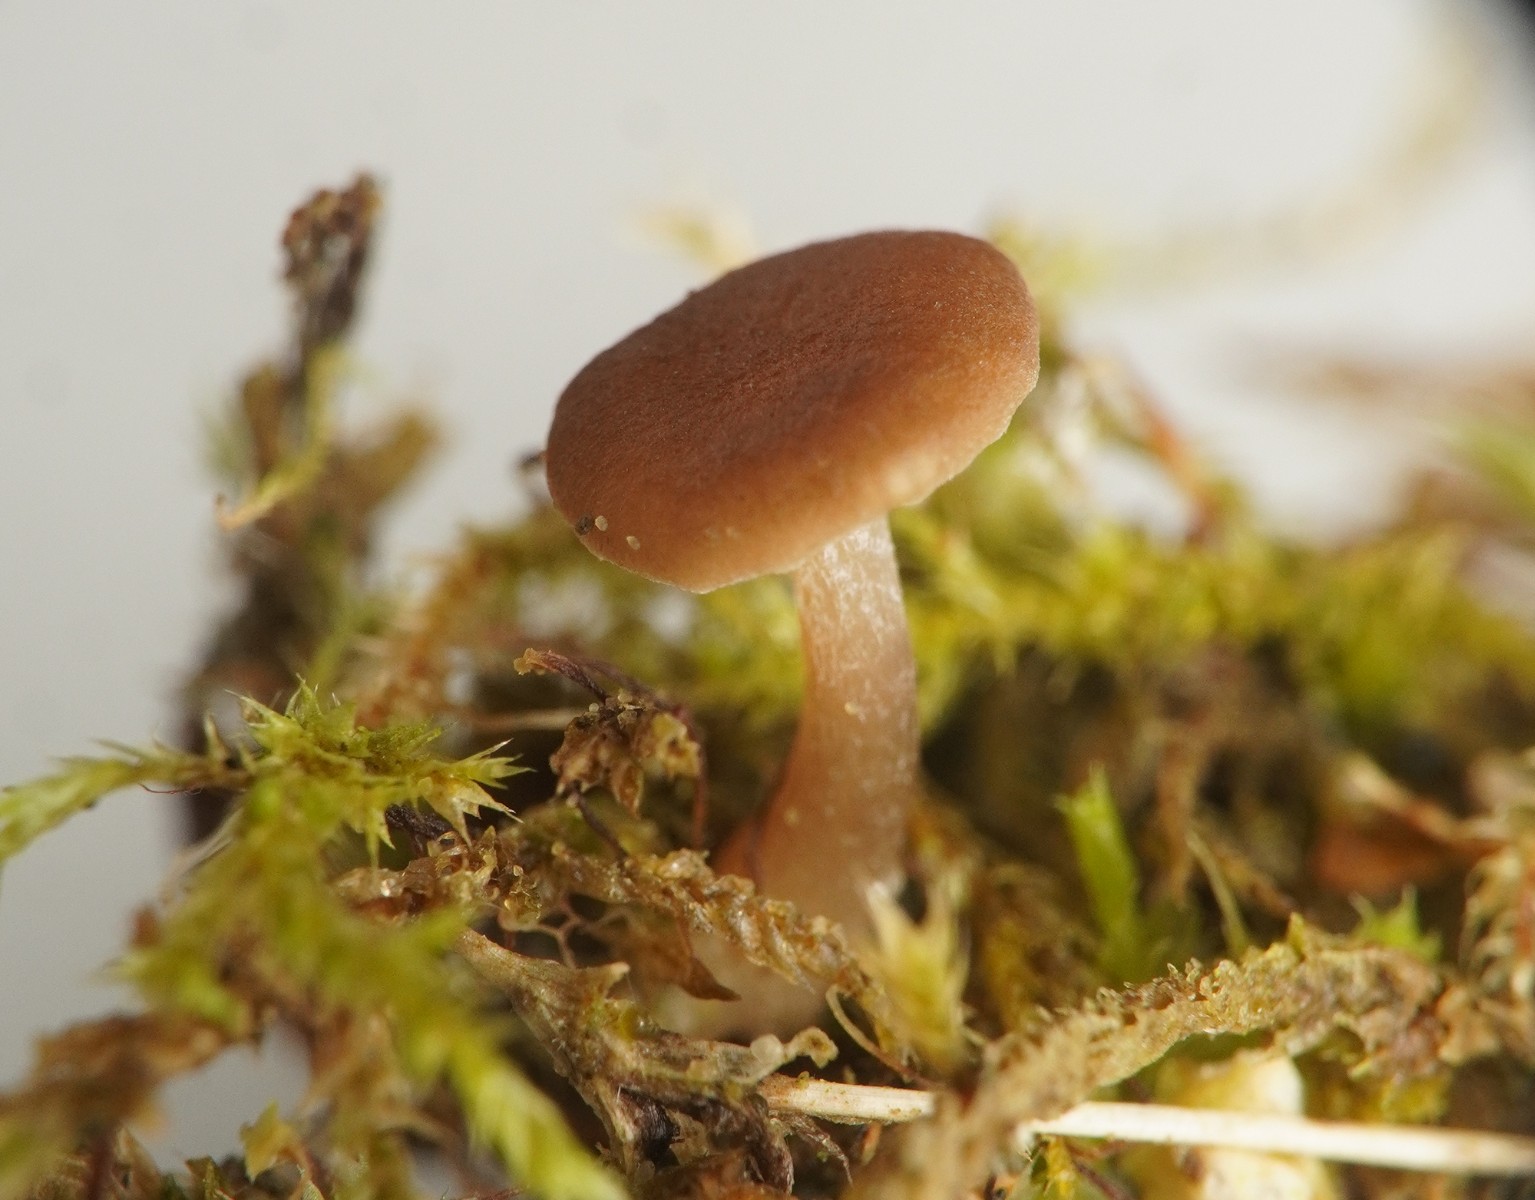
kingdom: Fungi
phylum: Basidiomycota
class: Agaricomycetes
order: Agaricales
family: Tricholomataceae
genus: Gamundia
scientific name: Gamundia xerophila
